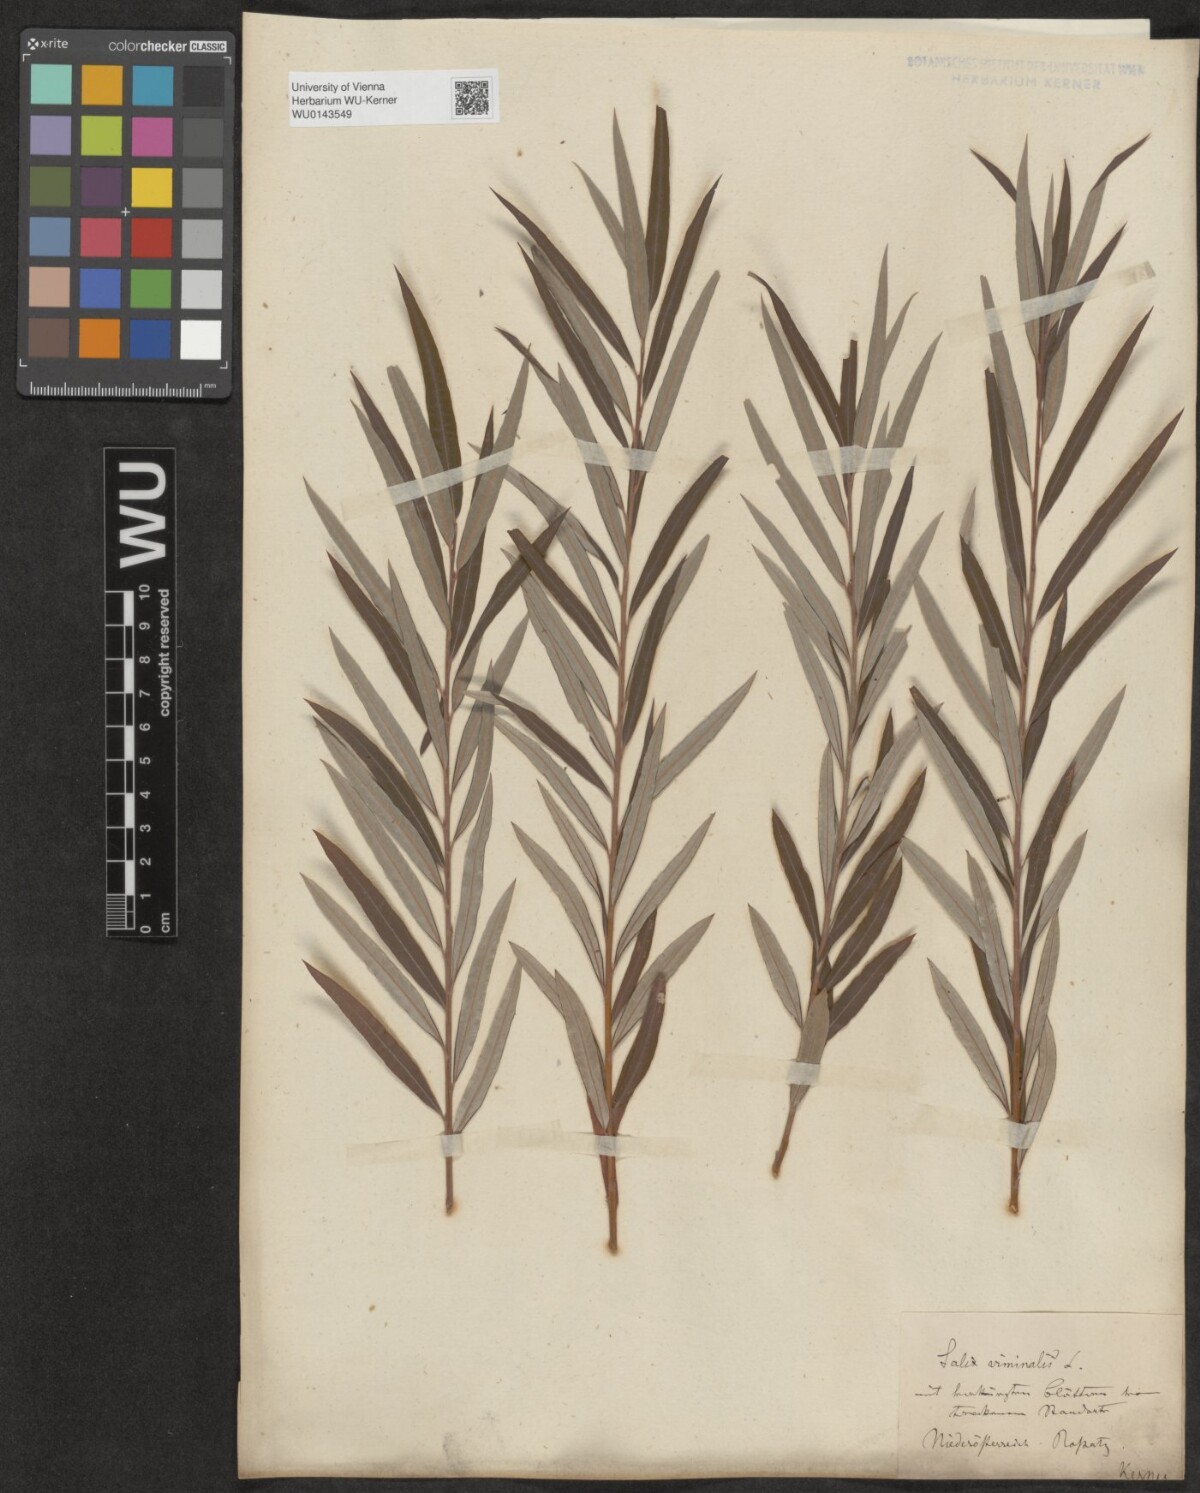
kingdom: Plantae
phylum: Tracheophyta
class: Magnoliopsida
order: Malpighiales
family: Salicaceae
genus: Salix
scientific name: Salix viminalis
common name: Osier
